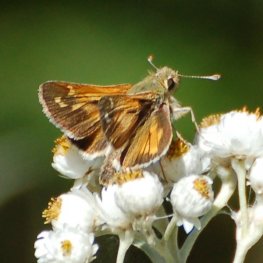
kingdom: Animalia
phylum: Arthropoda
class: Insecta
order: Lepidoptera
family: Hesperiidae
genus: Hesperia
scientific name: Hesperia comma
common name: Common Branded Skipper
